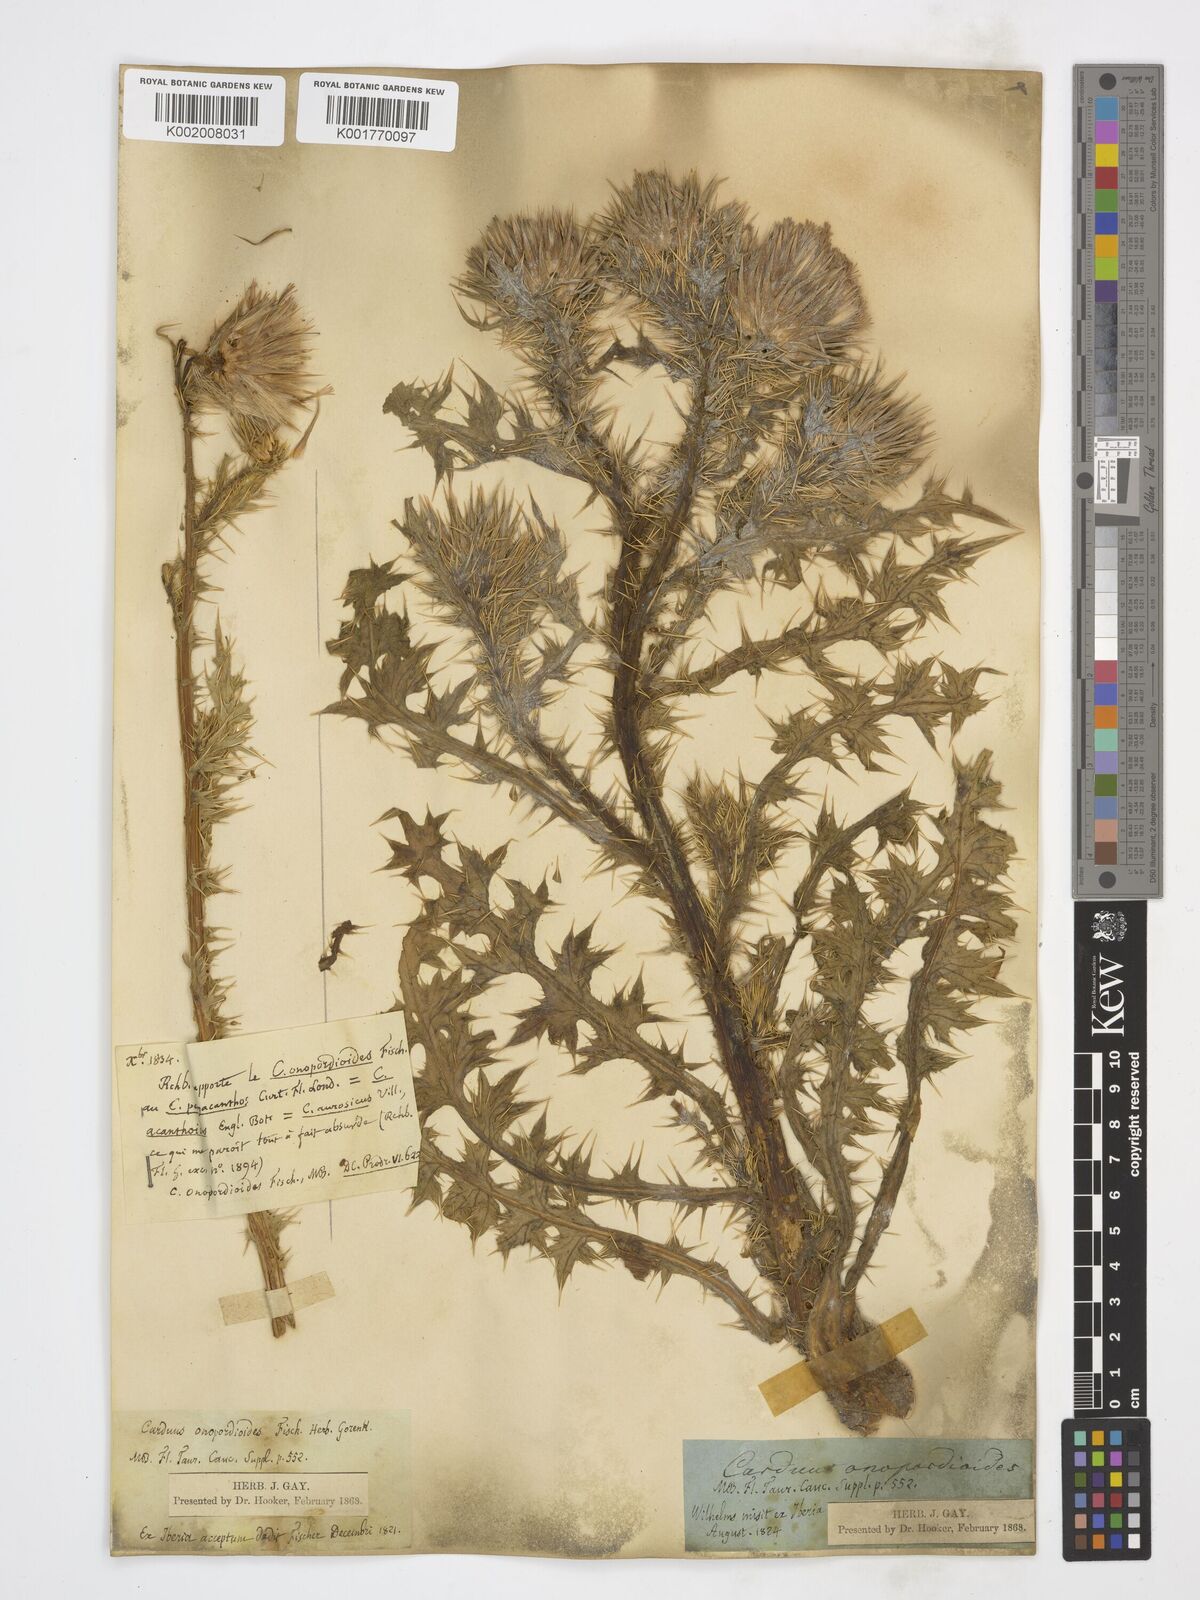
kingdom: Plantae
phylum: Tracheophyta
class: Magnoliopsida
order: Asterales
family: Asteraceae
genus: Carduus
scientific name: Carduus onopordioides
